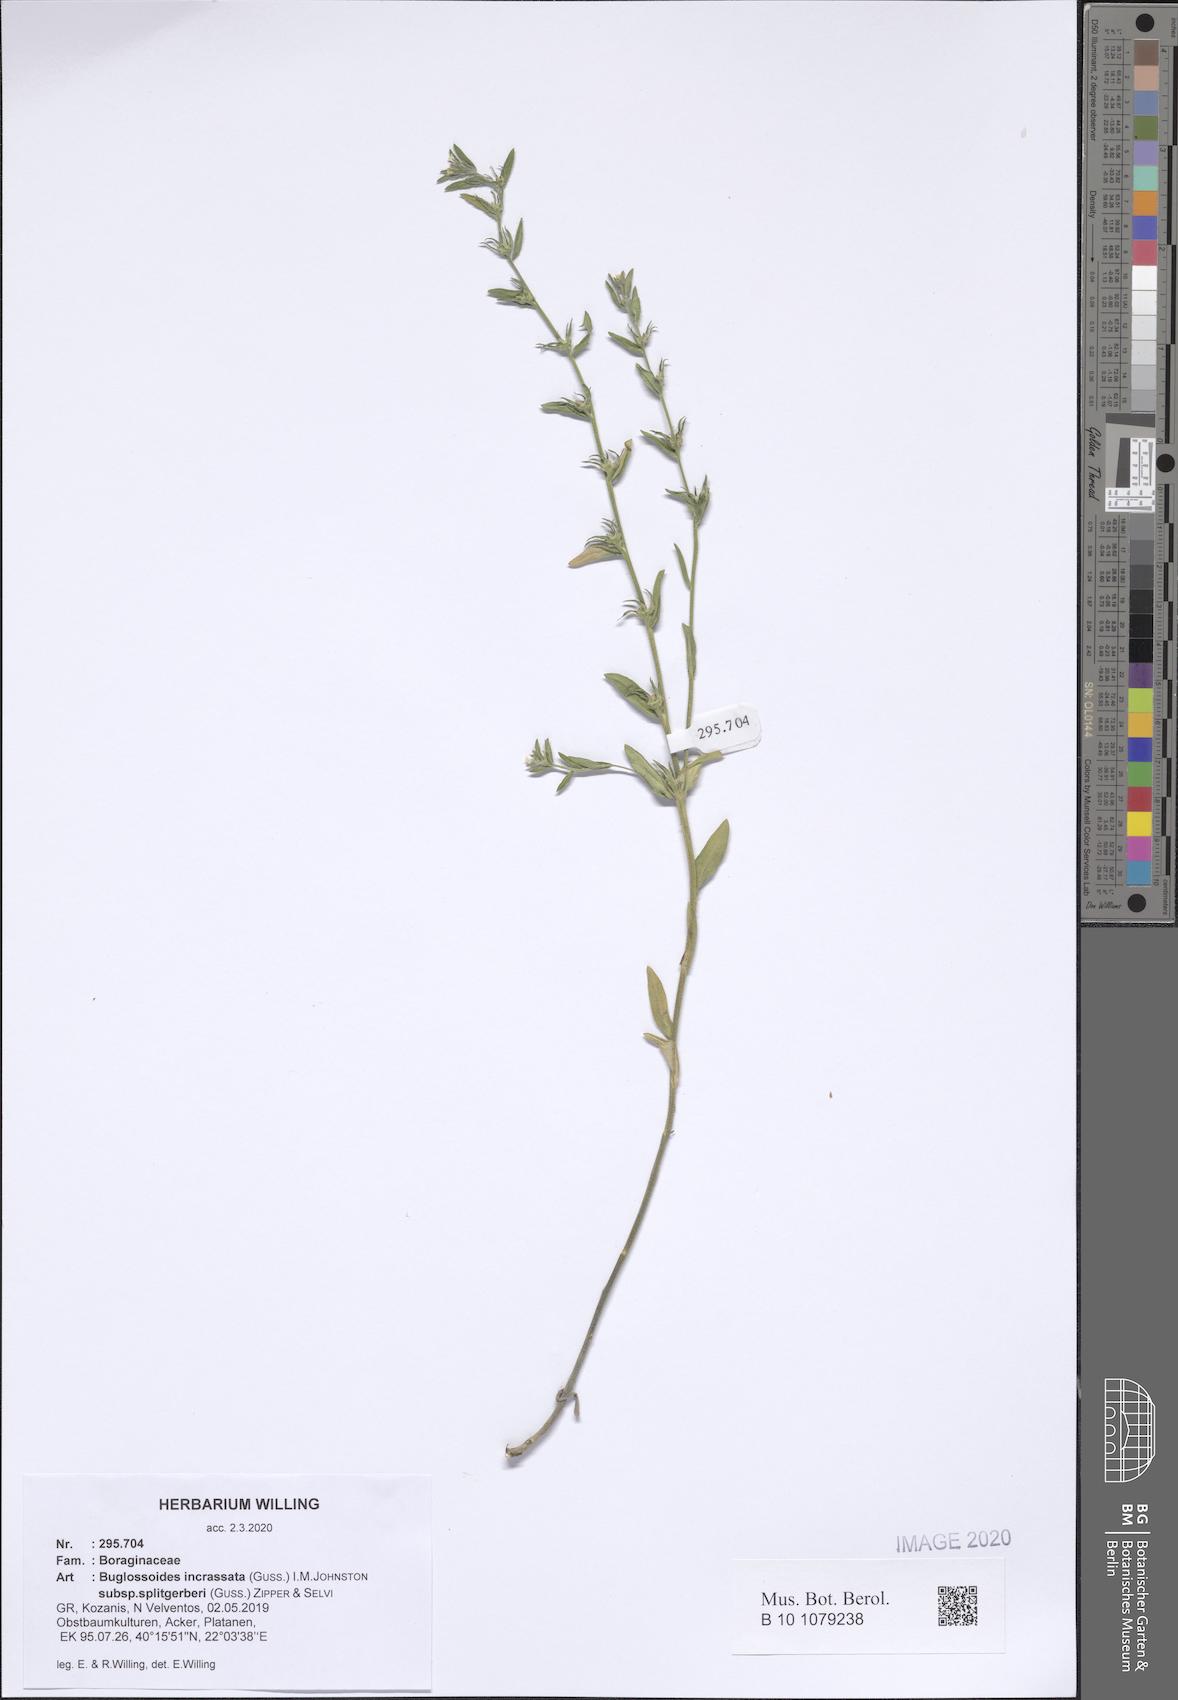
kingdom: Plantae
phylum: Tracheophyta
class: Magnoliopsida
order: Boraginales
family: Boraginaceae
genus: Buglossoides
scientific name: Buglossoides incrassata
